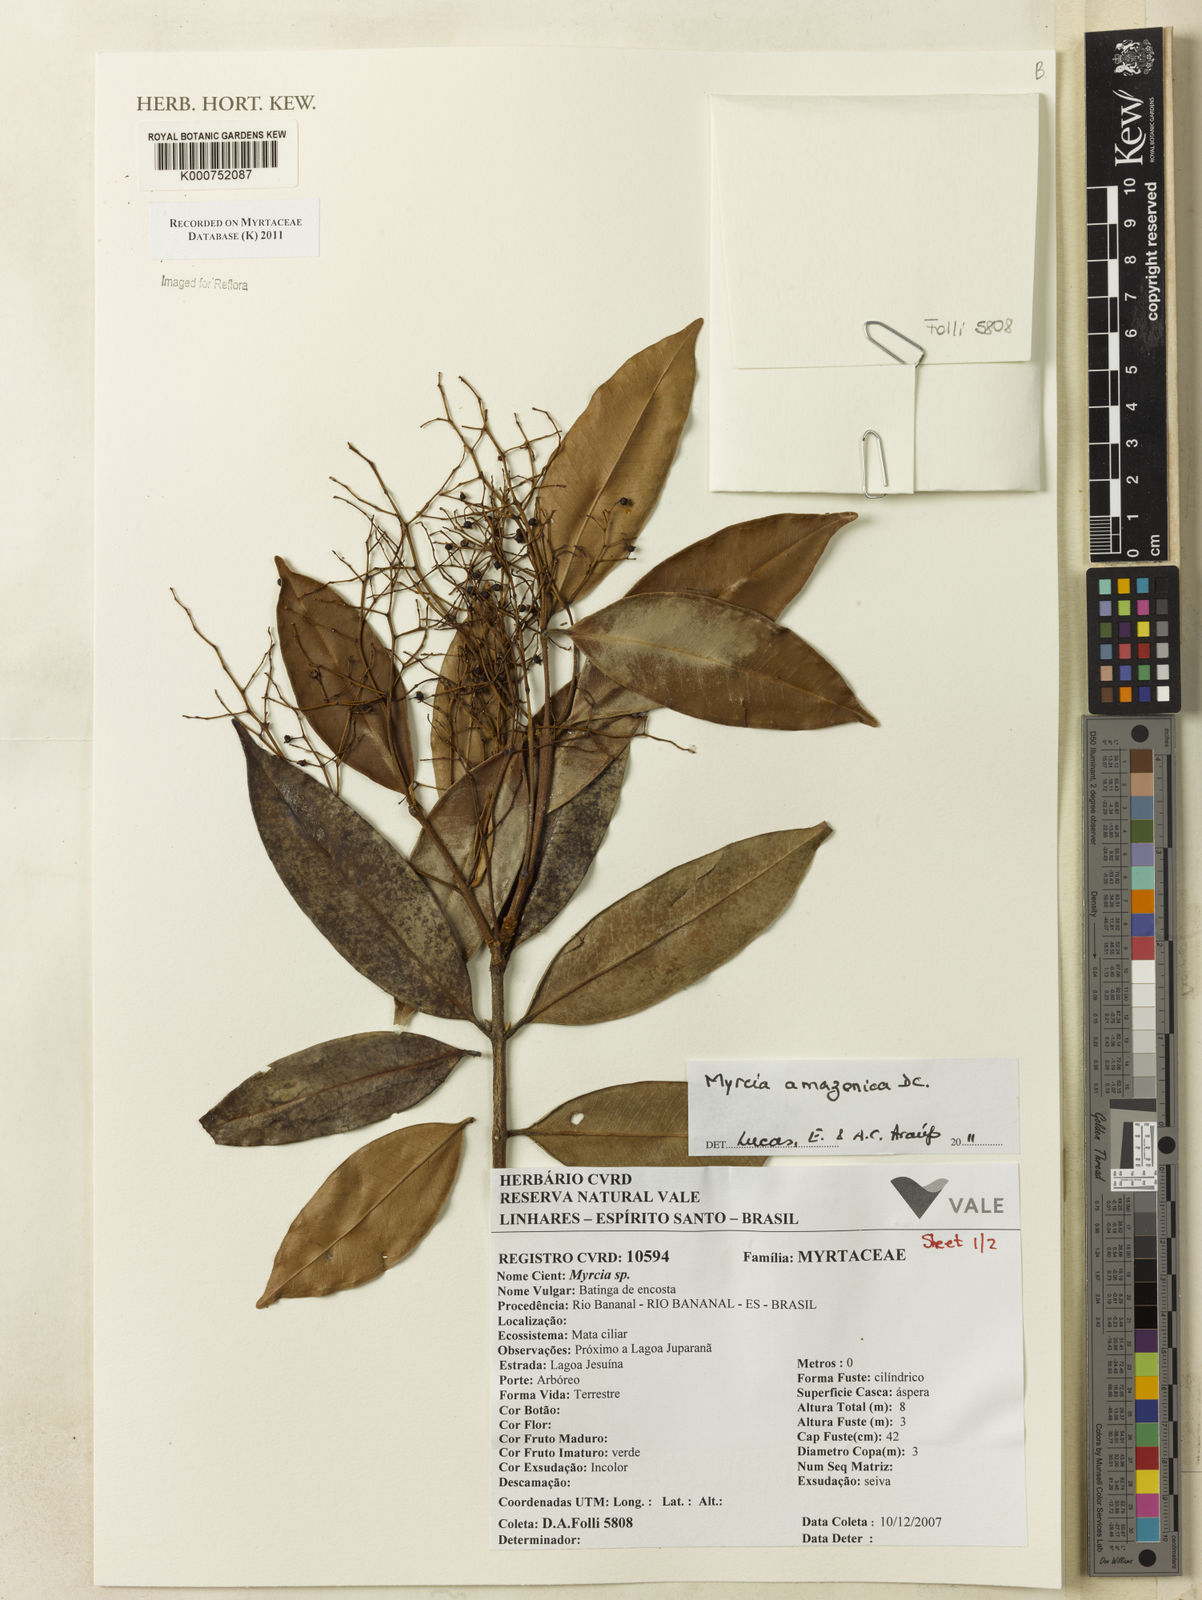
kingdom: Plantae
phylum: Tracheophyta
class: Magnoliopsida
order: Myrtales
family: Myrtaceae
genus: Myrcia
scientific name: Myrcia amazonica
